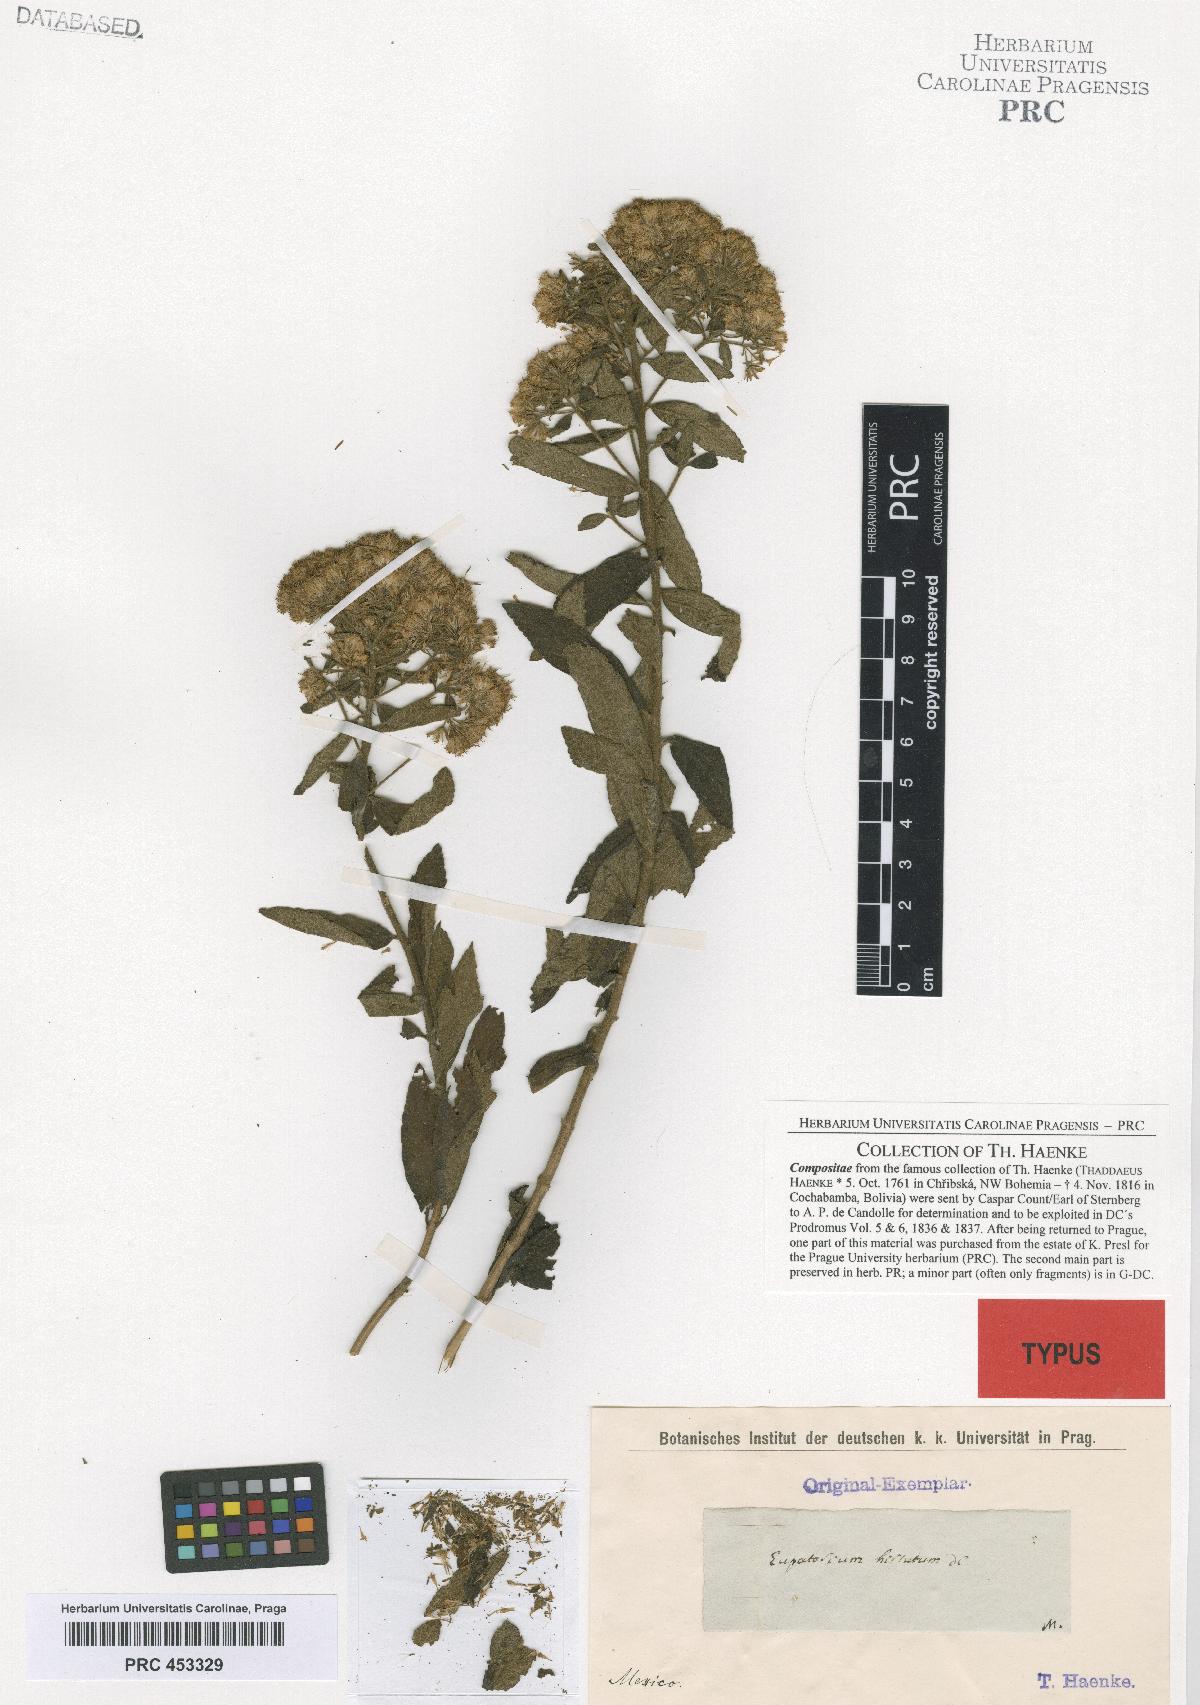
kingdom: Plantae
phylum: Tracheophyta
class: Magnoliopsida
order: Asterales
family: Asteraceae
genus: Ageratina
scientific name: Ageratina liebmannii
